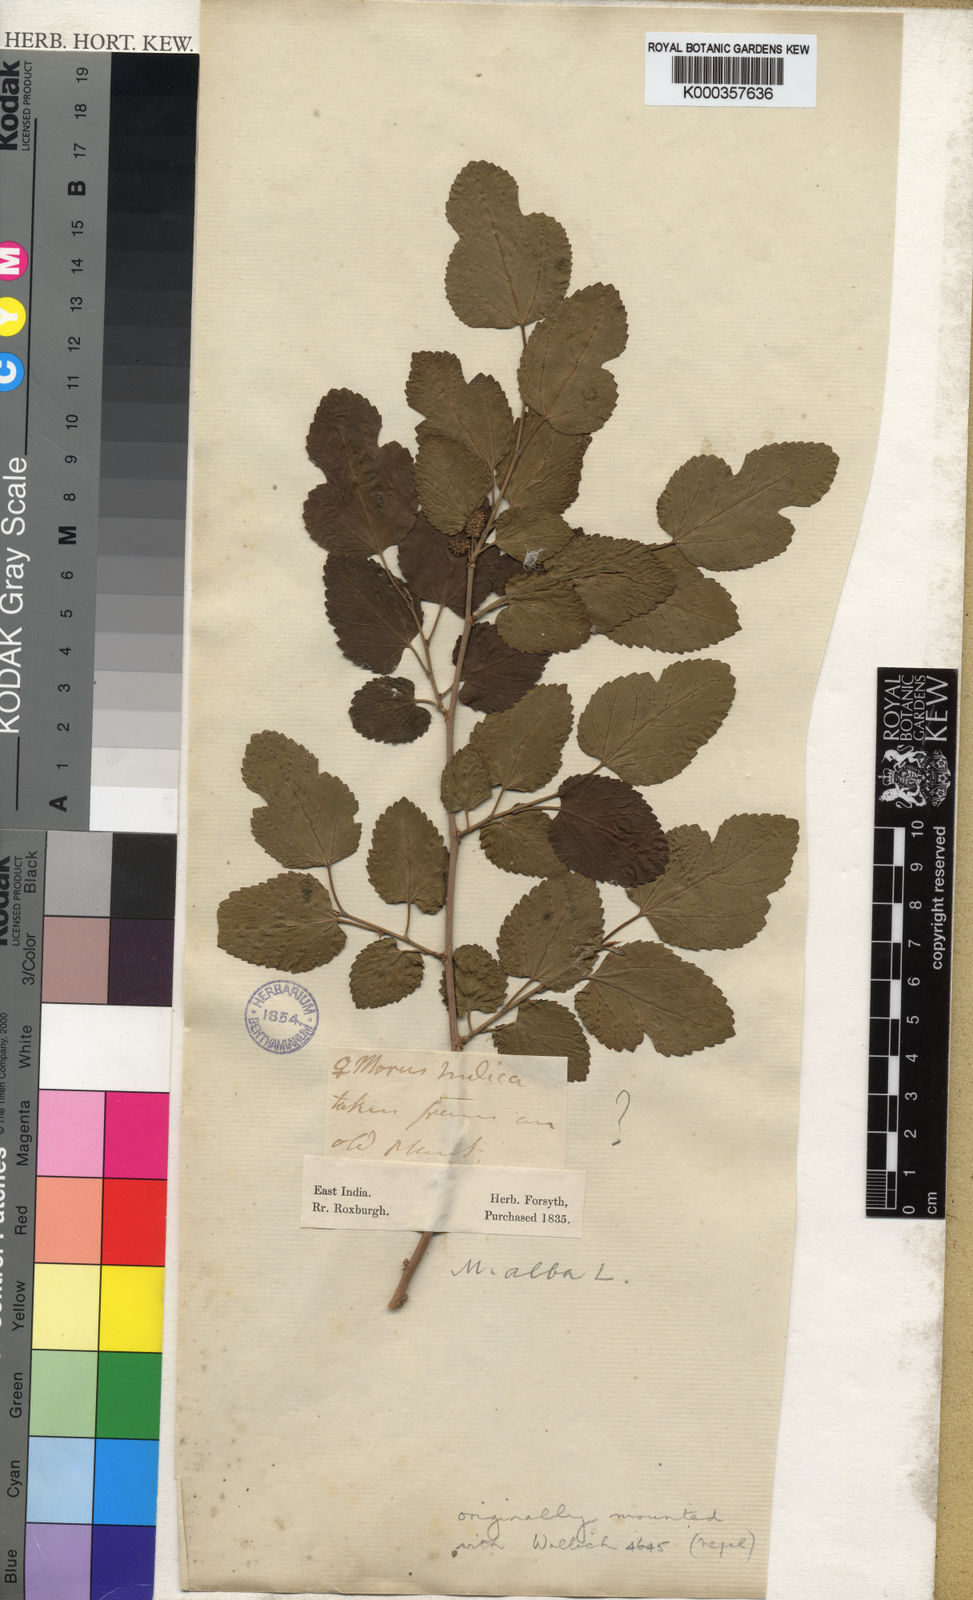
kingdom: Plantae
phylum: Tracheophyta
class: Magnoliopsida
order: Rosales
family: Moraceae
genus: Morus
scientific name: Morus indica
